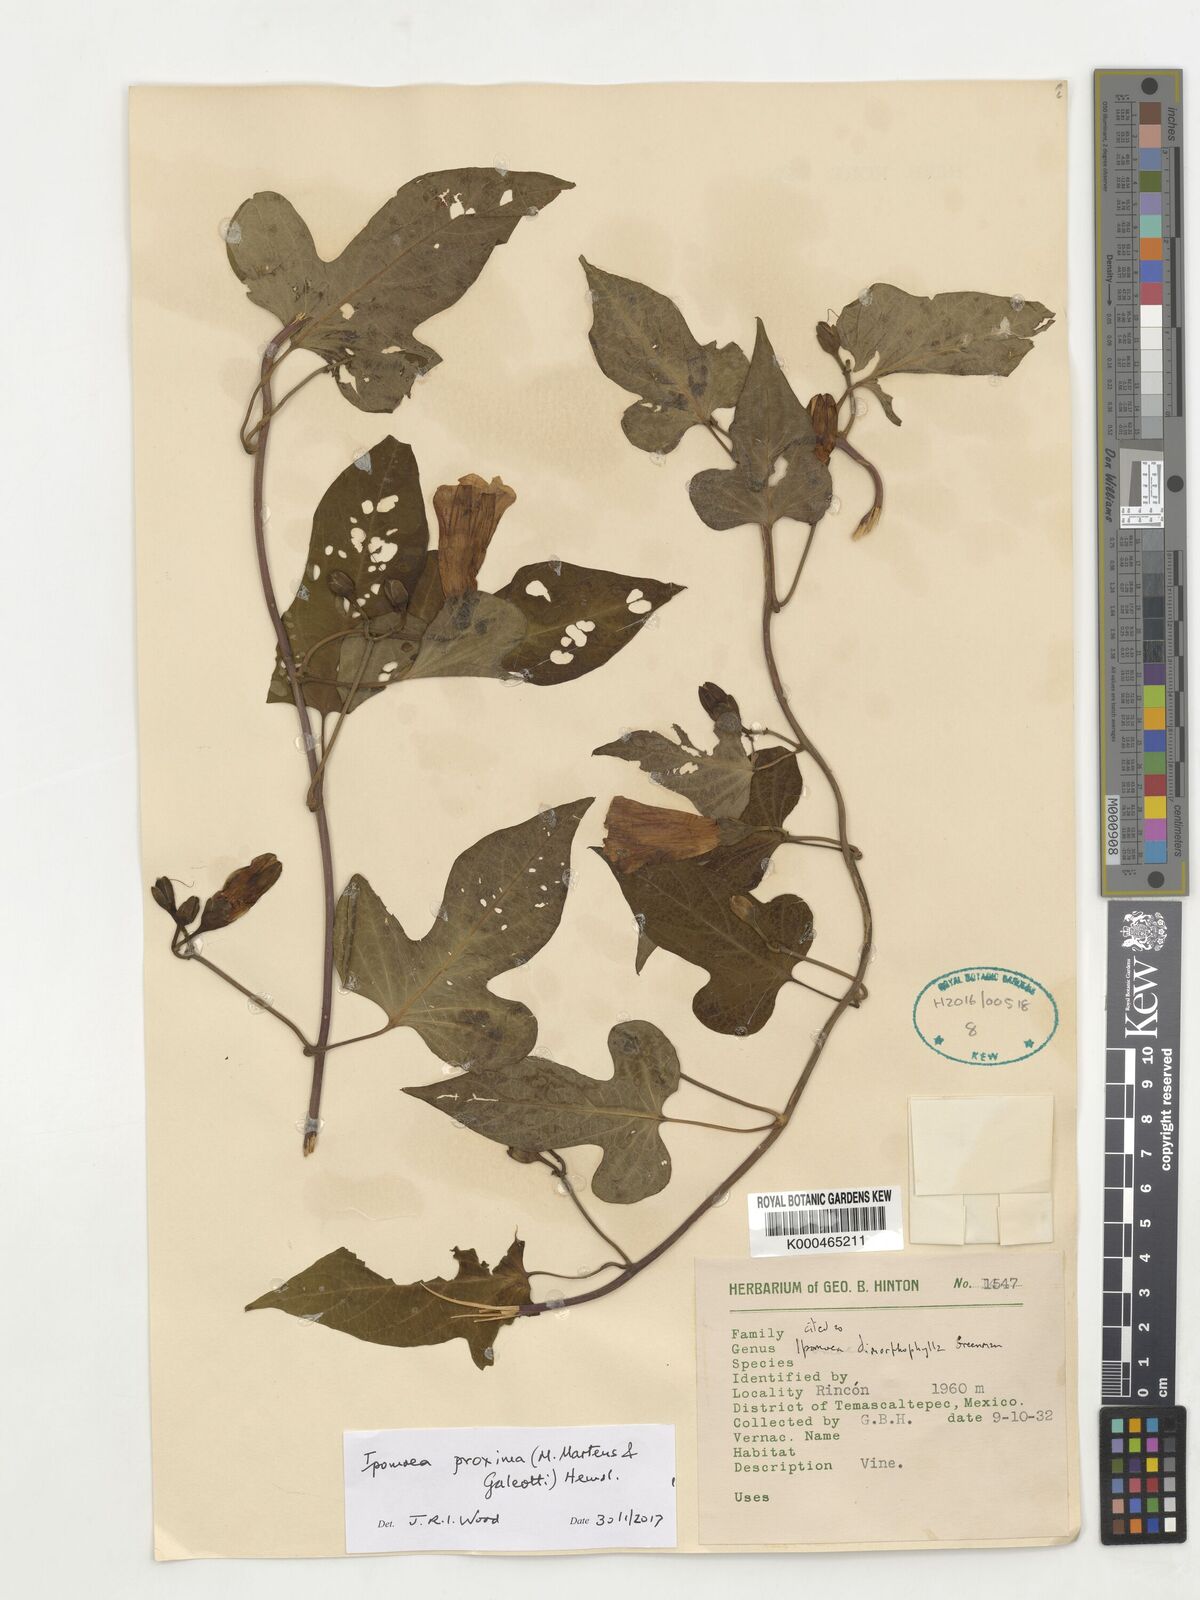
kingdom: Plantae
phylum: Tracheophyta
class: Magnoliopsida
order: Solanales
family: Convolvulaceae
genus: Ipomoea
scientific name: Ipomoea proxima
